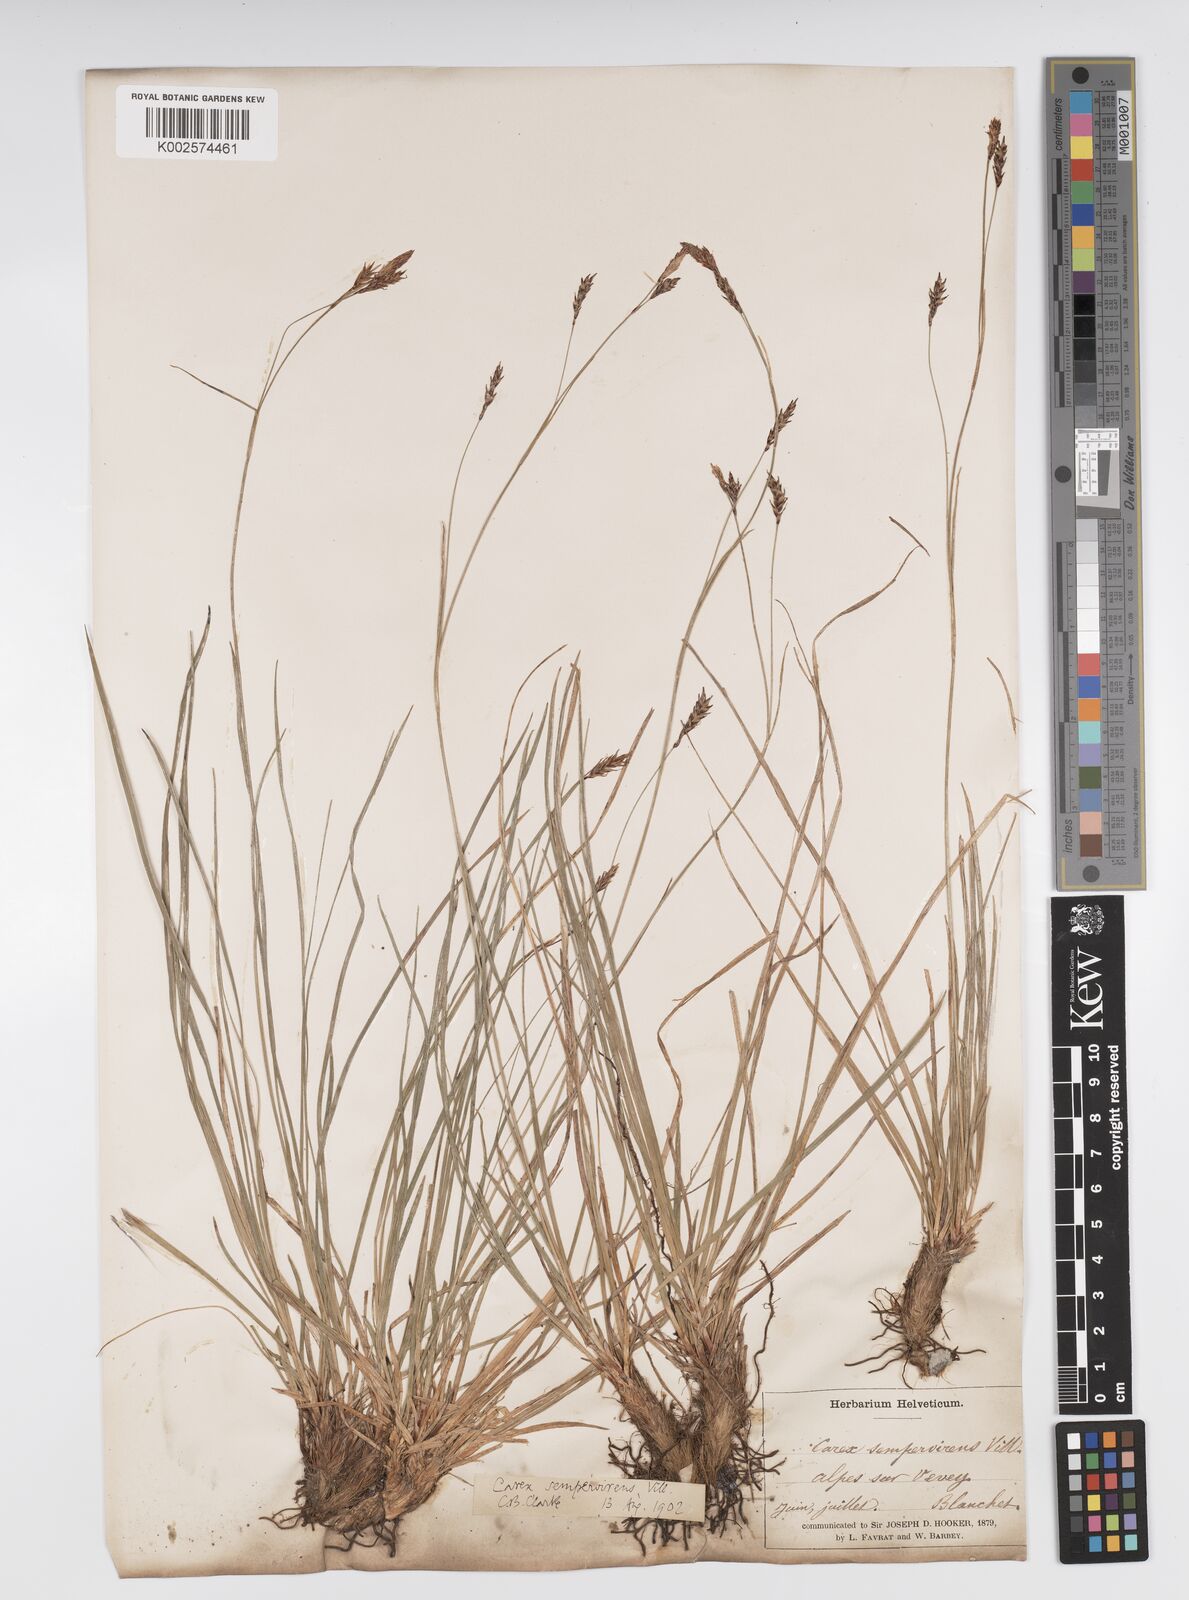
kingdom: Plantae
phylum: Tracheophyta
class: Liliopsida
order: Poales
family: Cyperaceae
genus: Carex
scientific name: Carex sempervirens
